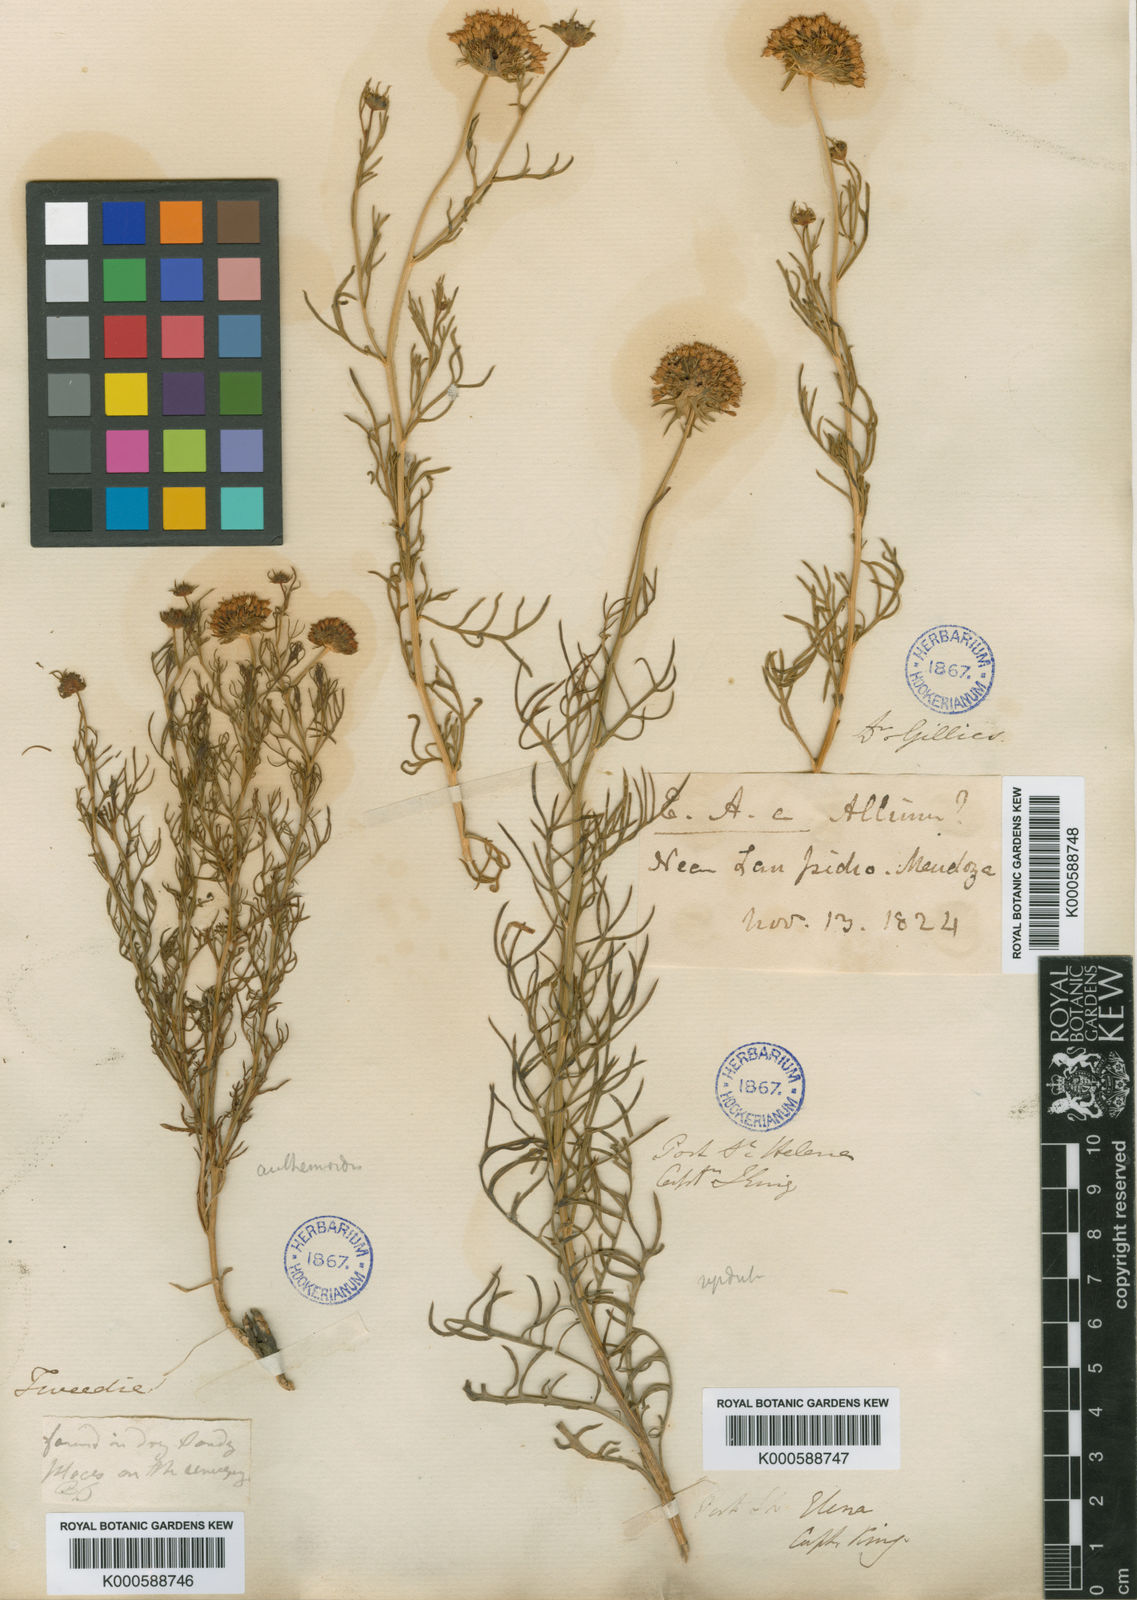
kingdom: Plantae
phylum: Tracheophyta
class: Magnoliopsida
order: Asterales
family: Calyceraceae
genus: Boopis
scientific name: Boopis anthemoides
